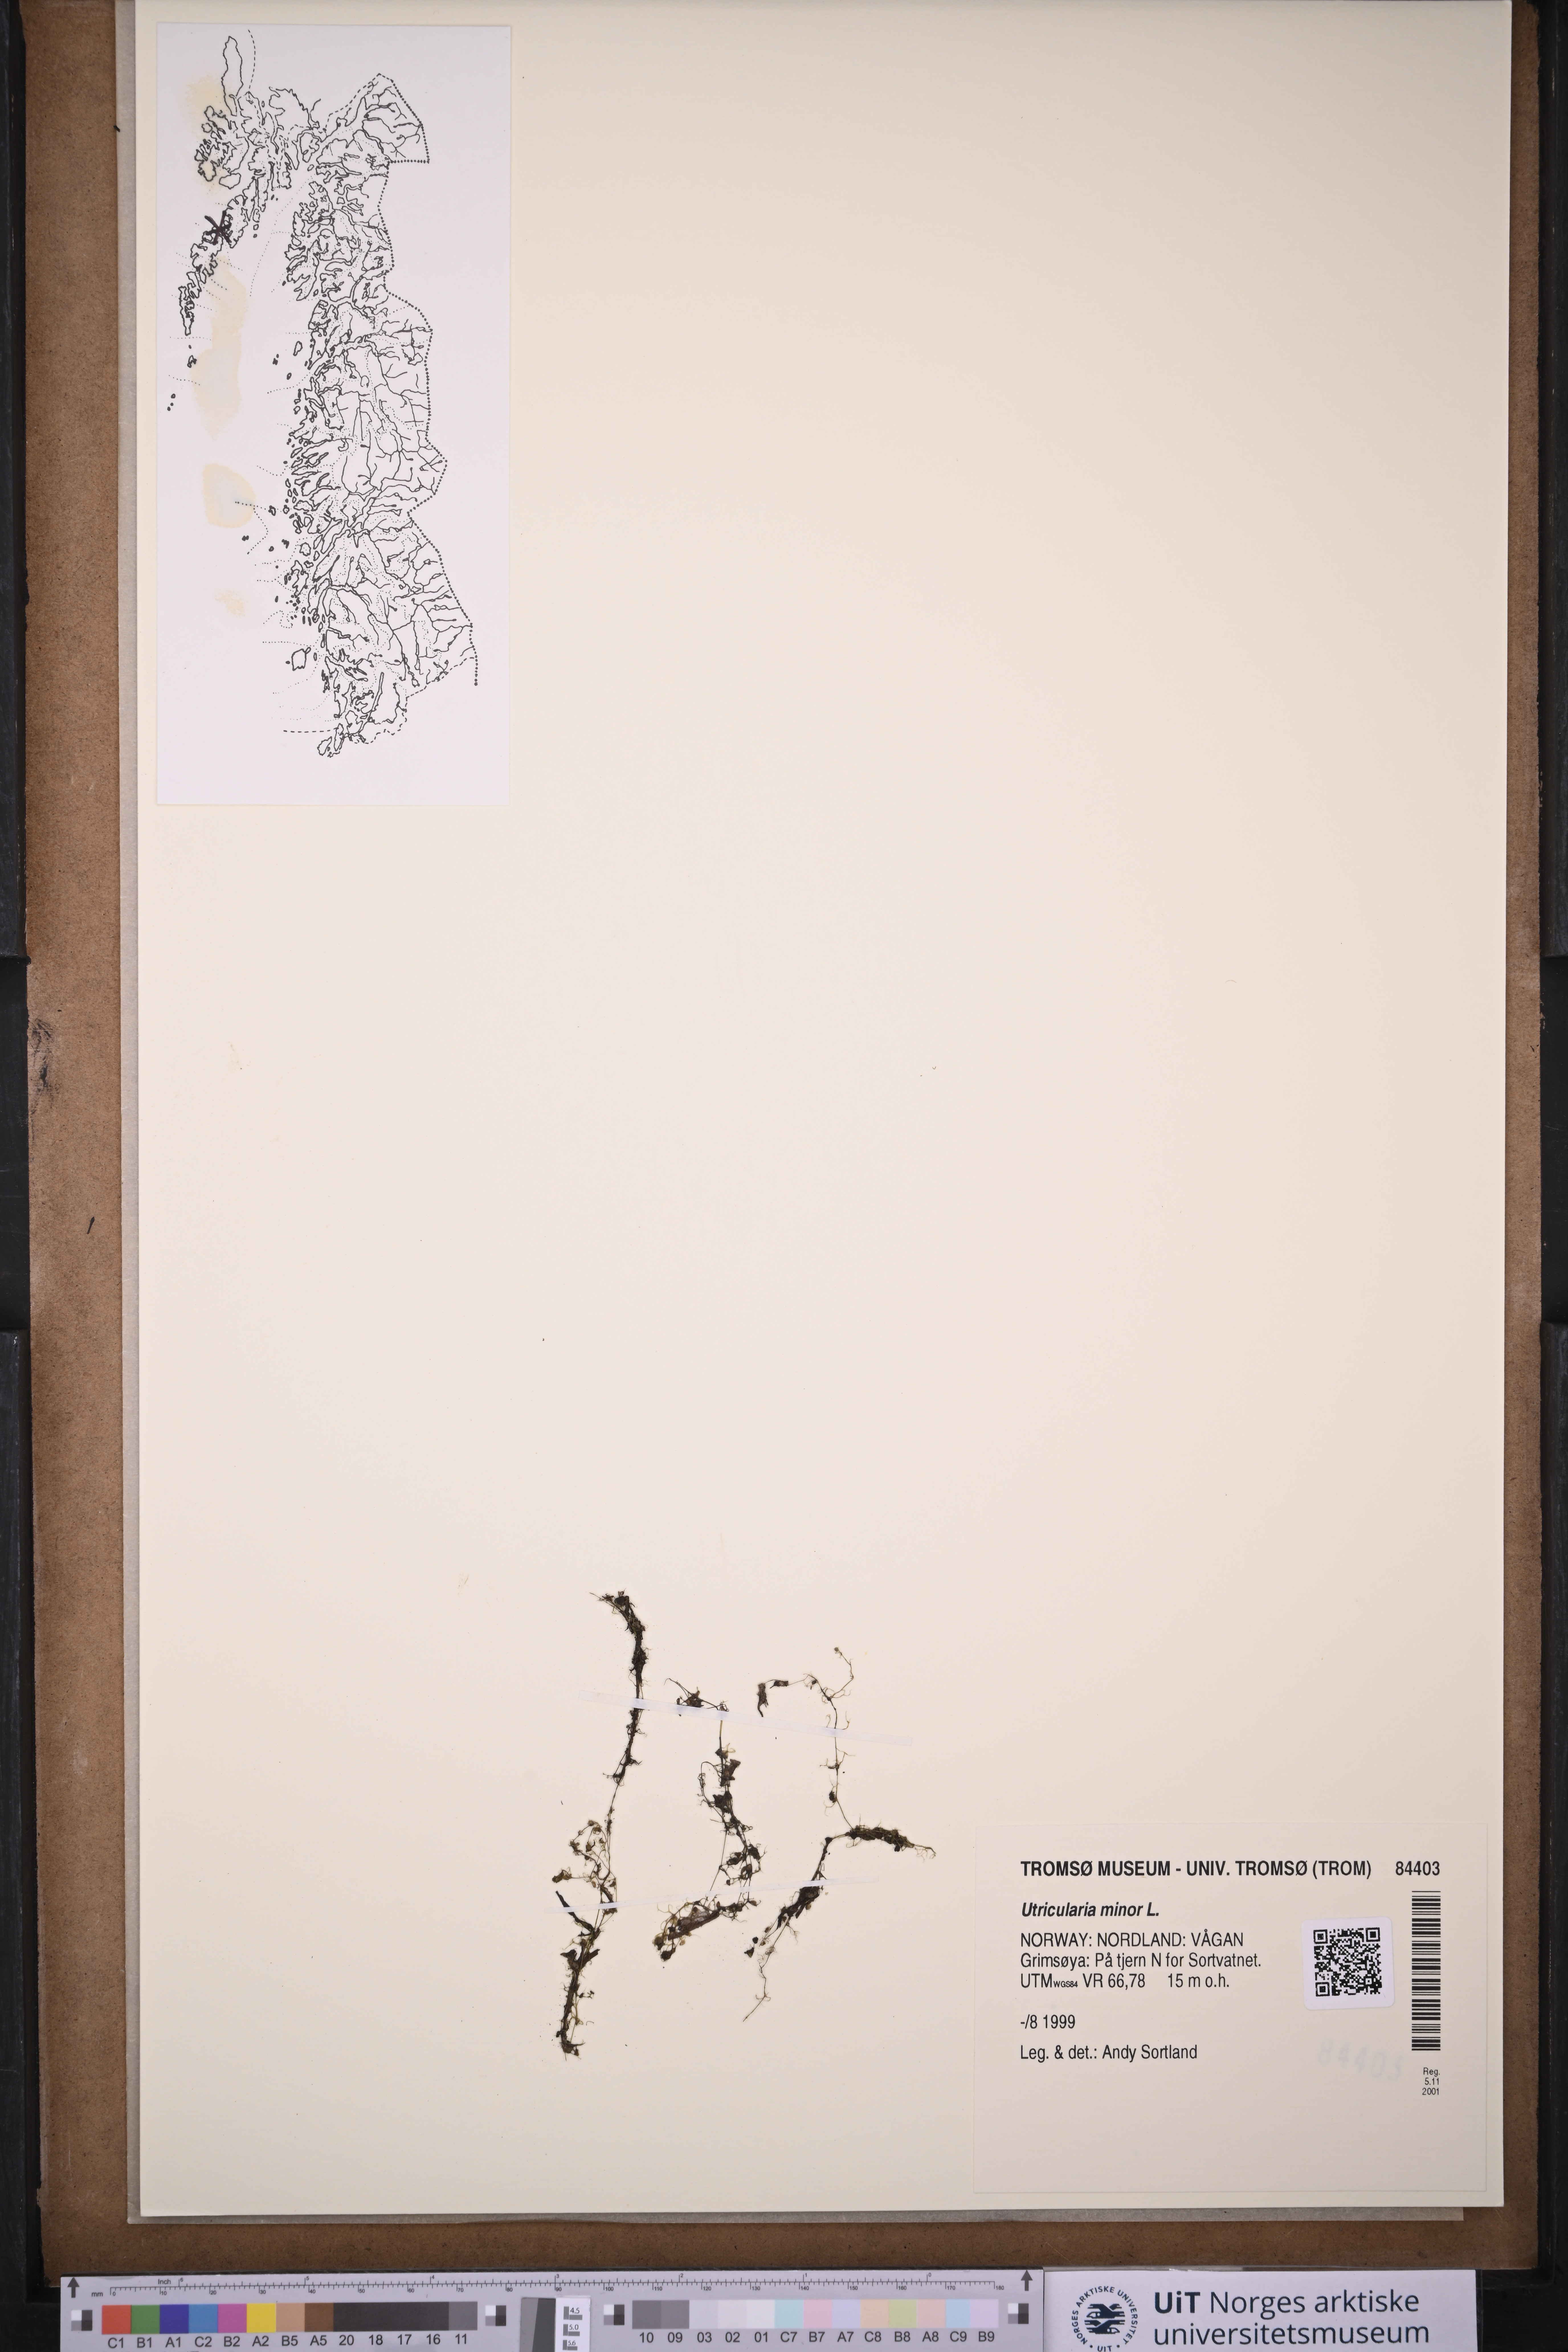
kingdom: Plantae
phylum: Tracheophyta
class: Magnoliopsida
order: Lamiales
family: Lentibulariaceae
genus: Utricularia
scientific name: Utricularia minor
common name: Lesser bladderwort
